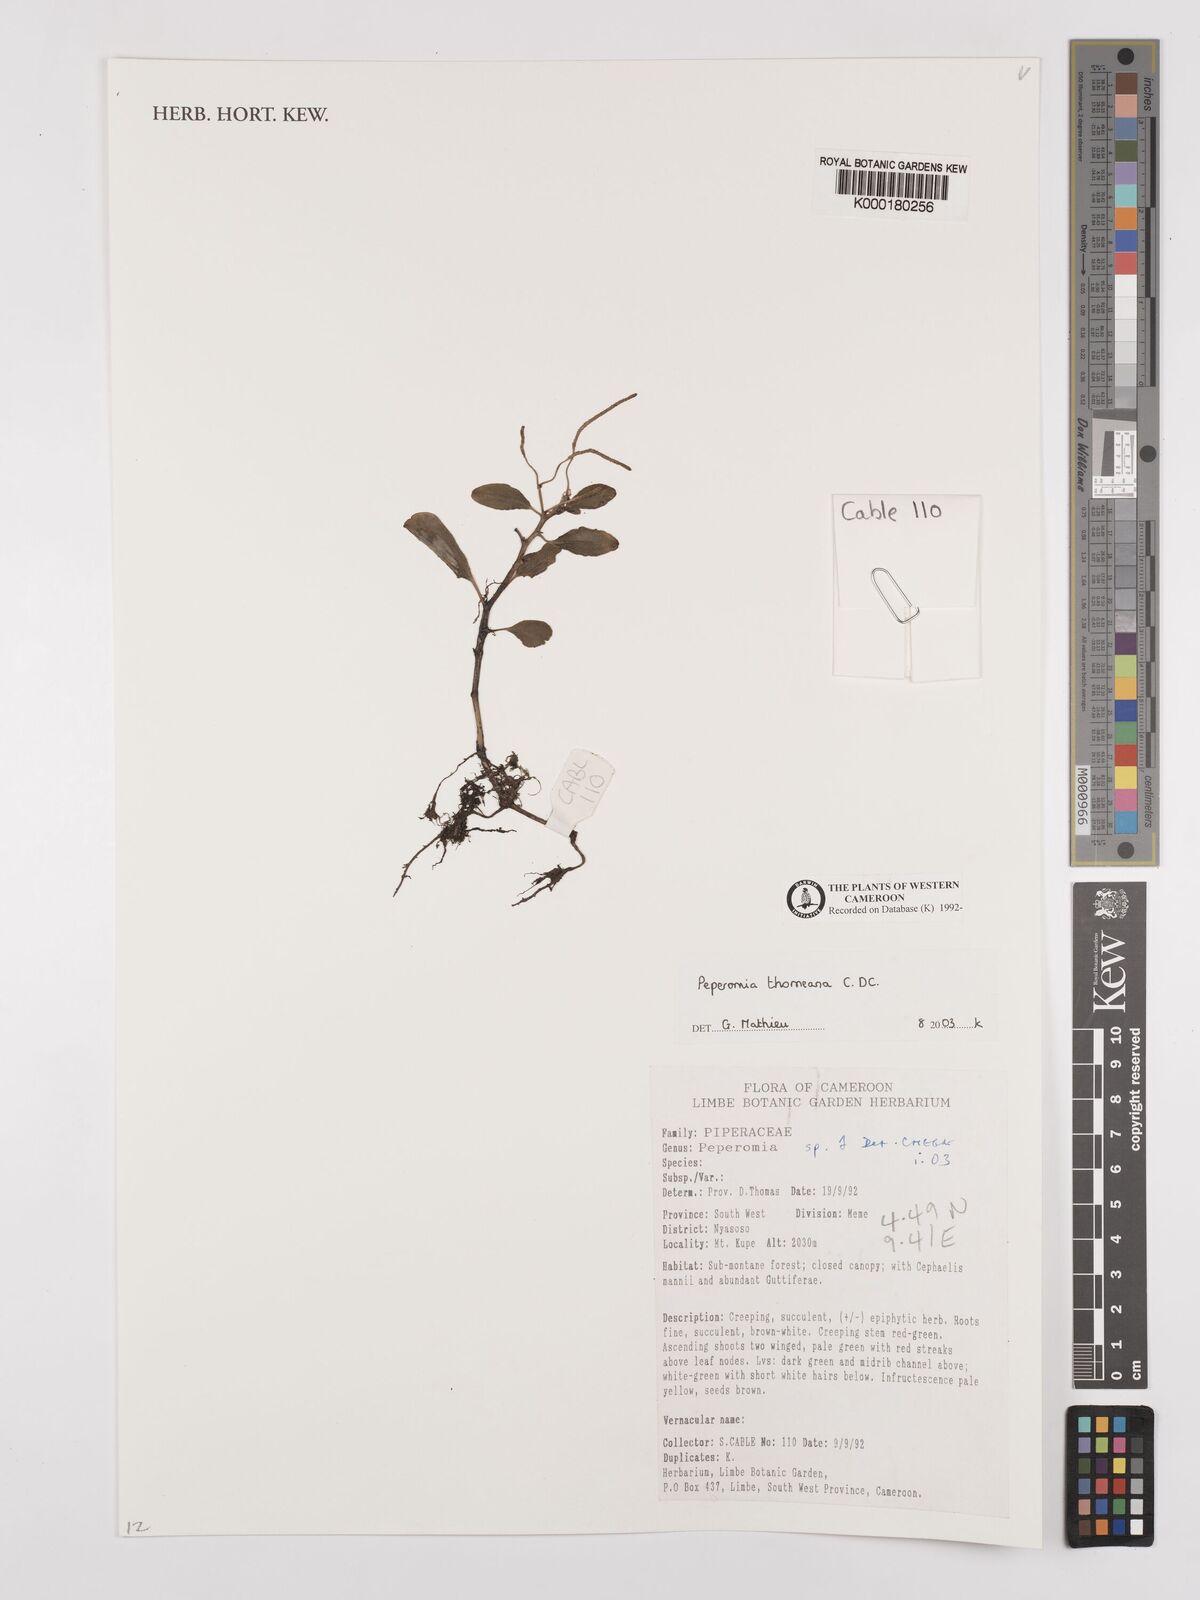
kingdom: Plantae
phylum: Tracheophyta
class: Magnoliopsida
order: Piperales
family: Piperaceae
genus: Peperomia
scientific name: Peperomia thomeana
